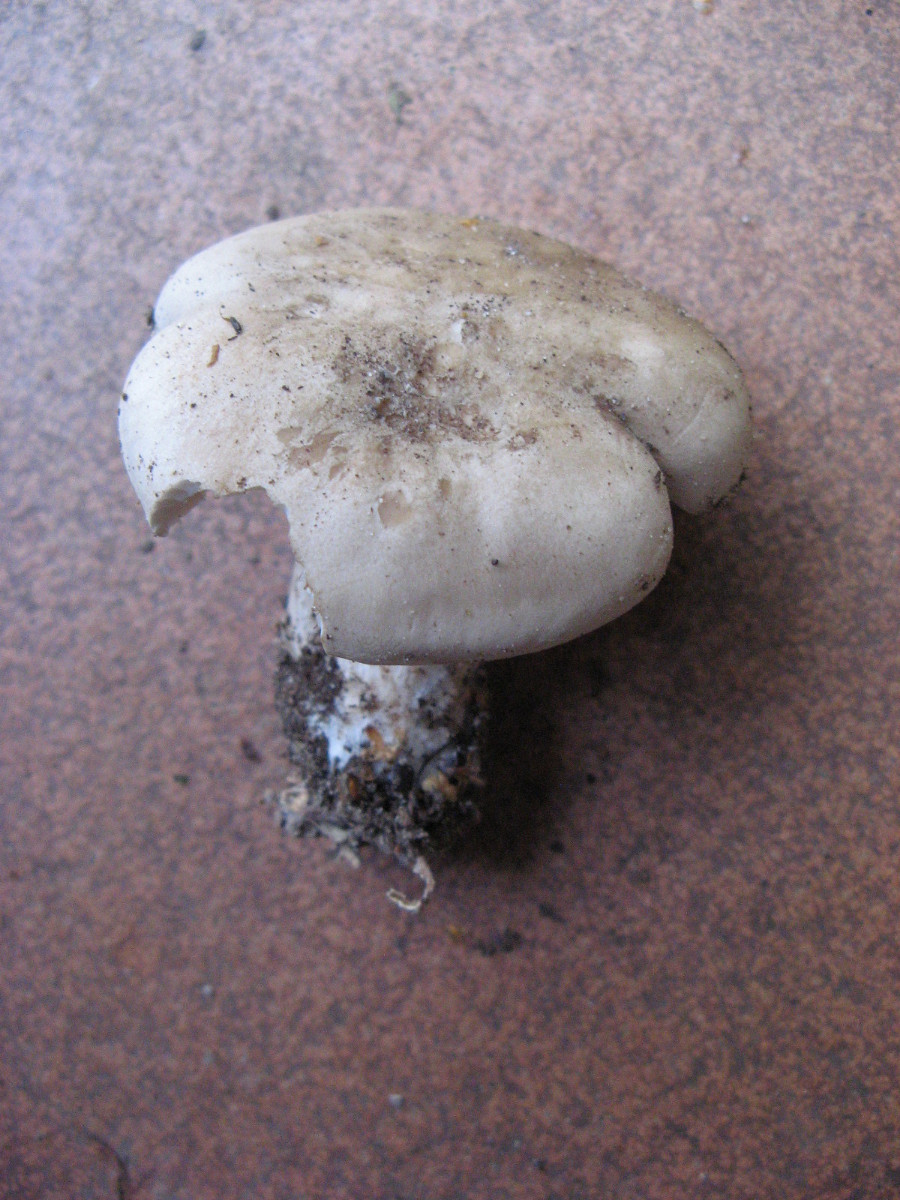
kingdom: Fungi
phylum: Basidiomycota
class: Agaricomycetes
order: Agaricales
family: Tricholomataceae
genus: Clitocybe
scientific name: Clitocybe nebularis
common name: tåge-tragthat
